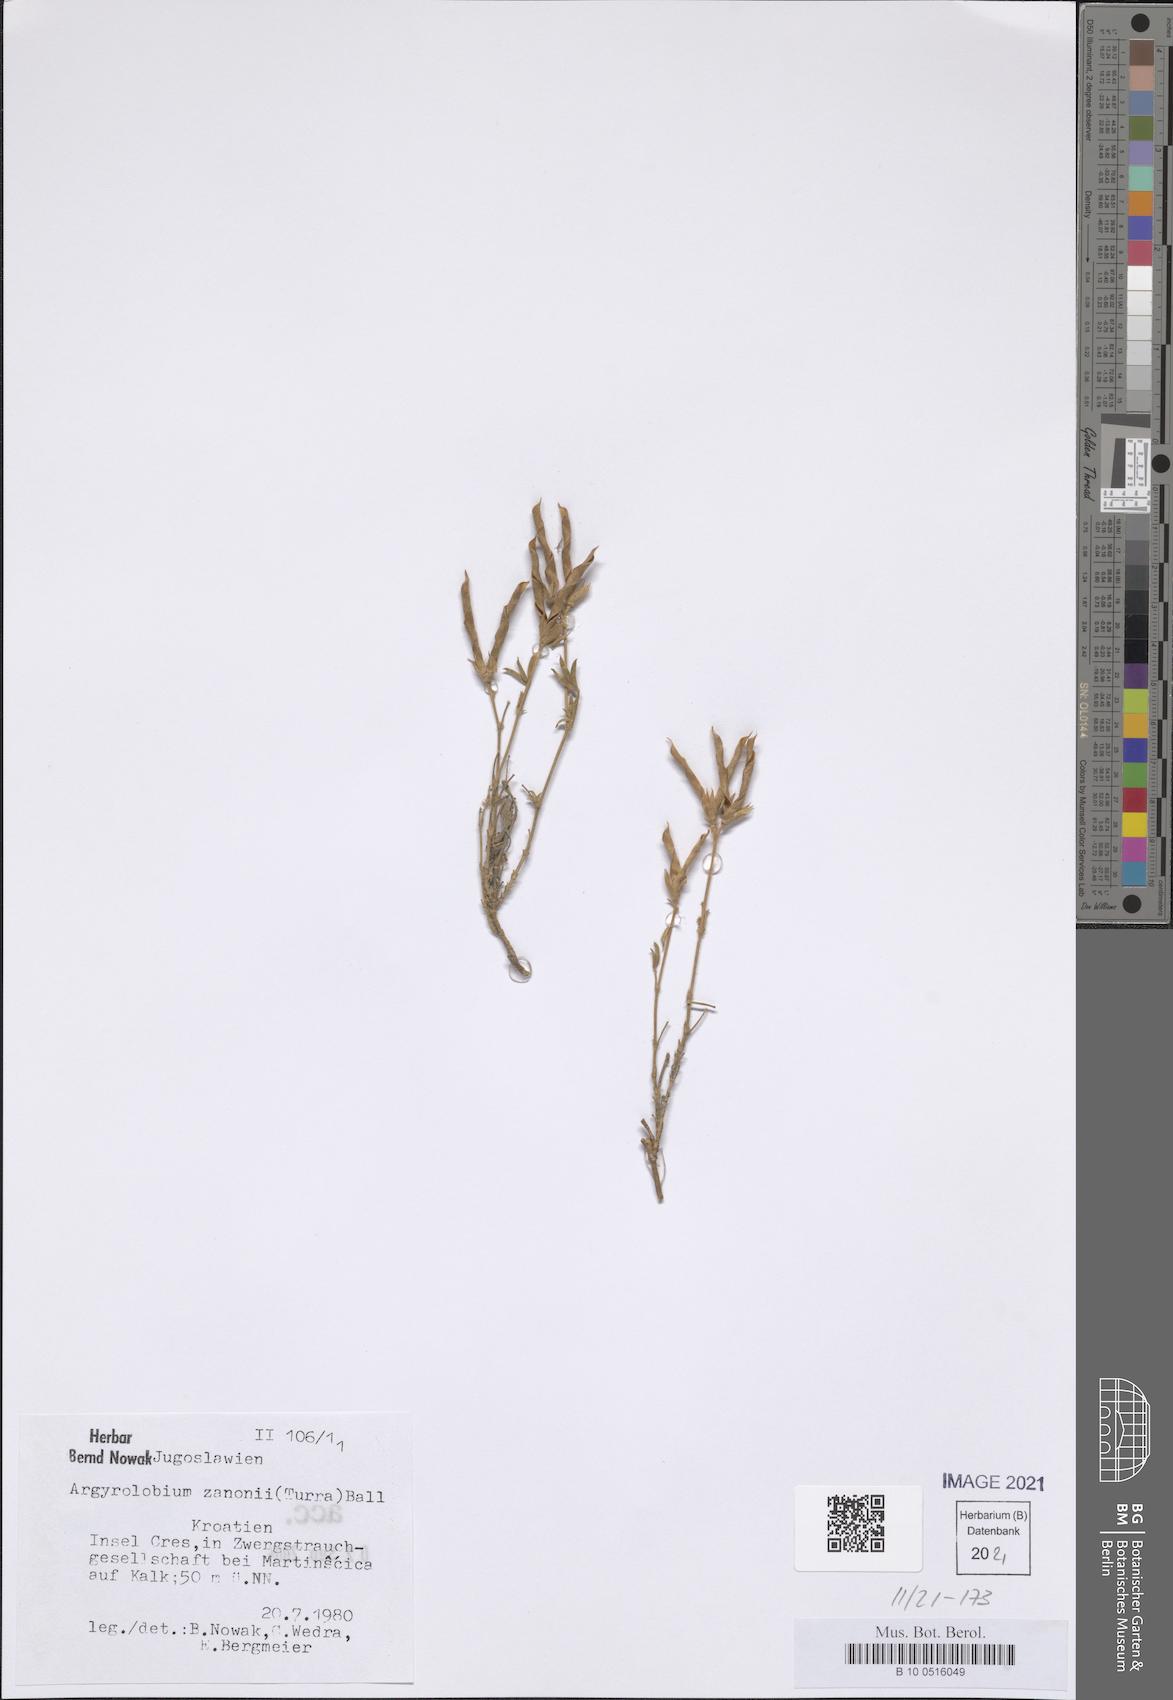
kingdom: Plantae
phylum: Tracheophyta
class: Magnoliopsida
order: Fabales
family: Fabaceae
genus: Argyrolobium
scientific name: Argyrolobium zanonii
